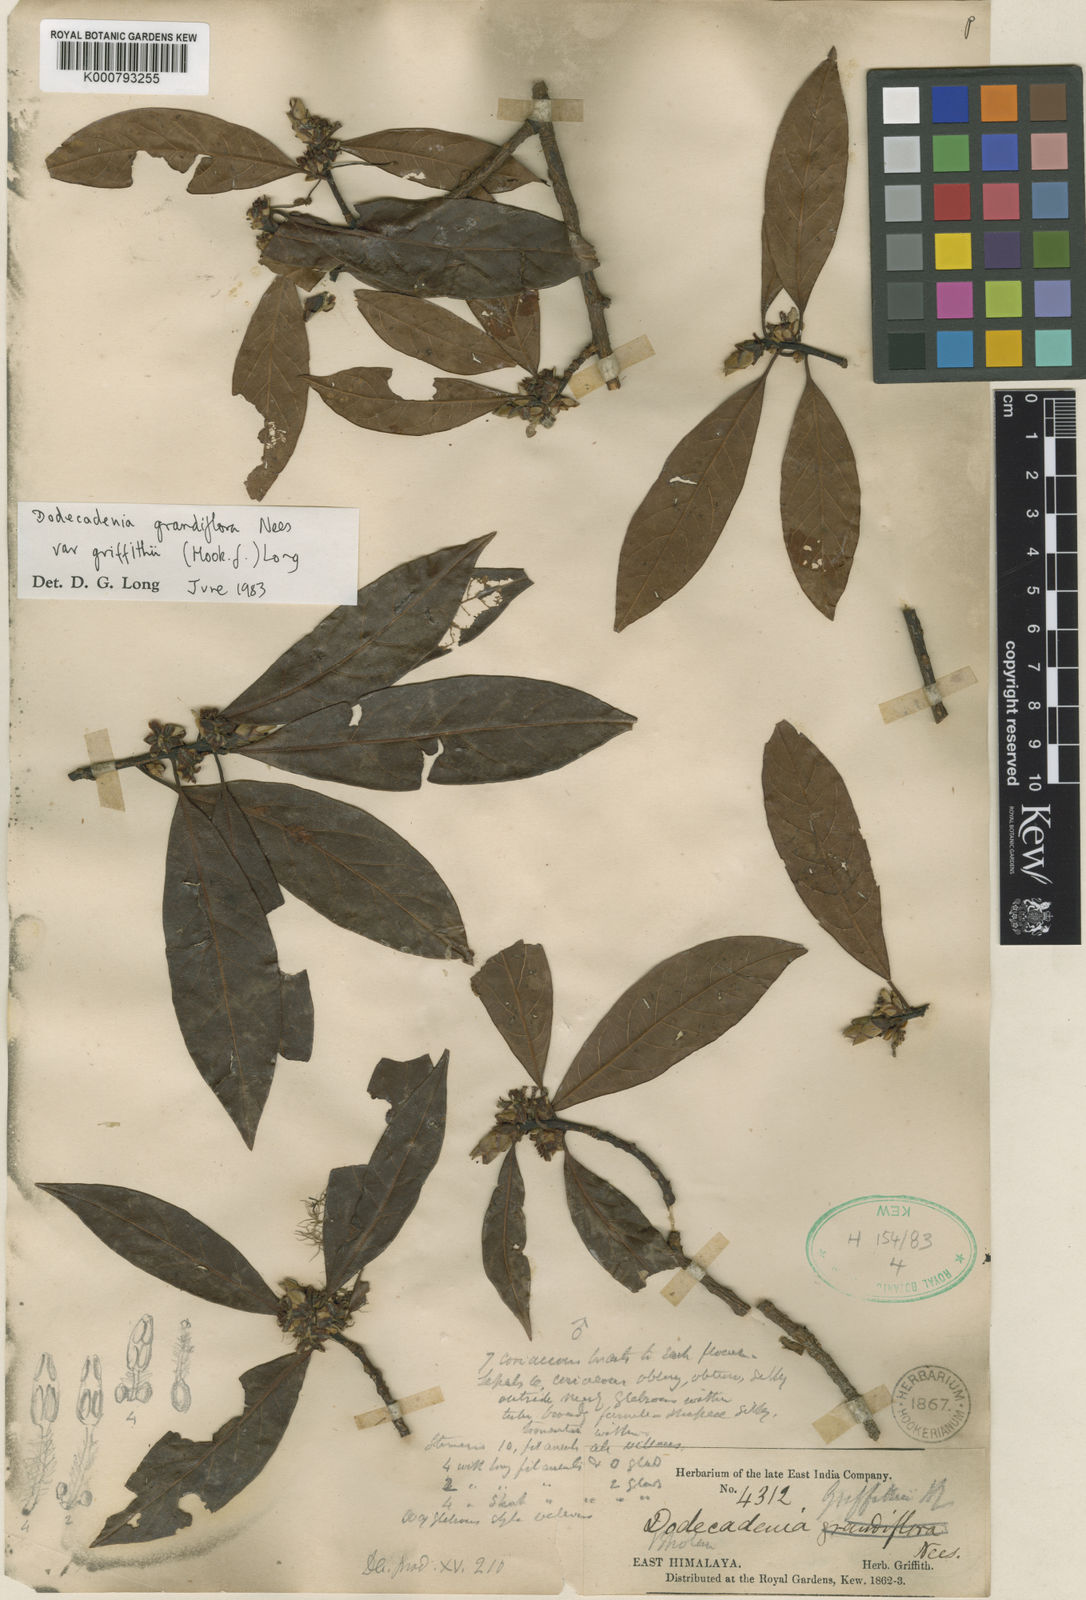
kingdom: Plantae
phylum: Tracheophyta
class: Magnoliopsida
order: Laurales
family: Lauraceae
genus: Litsea
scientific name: Litsea ferruginea
